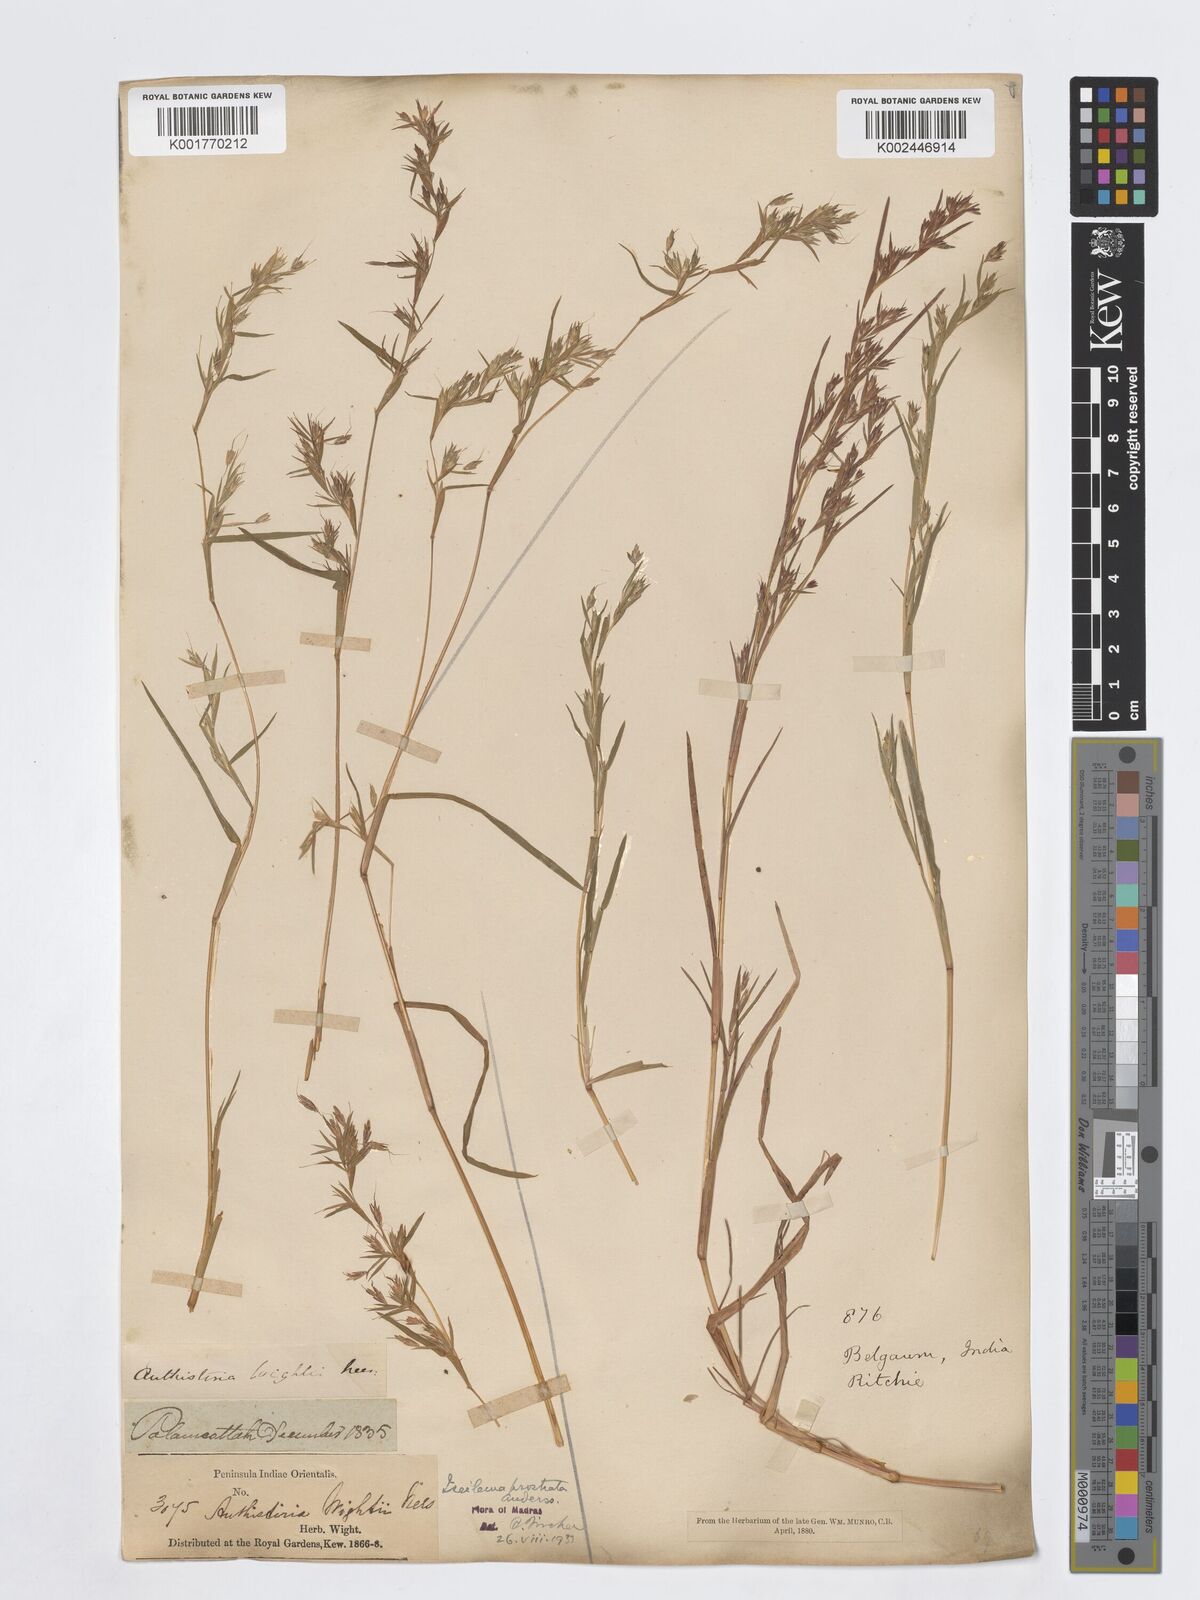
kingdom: Plantae
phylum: Tracheophyta
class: Liliopsida
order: Poales
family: Poaceae
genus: Iseilema
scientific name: Iseilema prostratum
